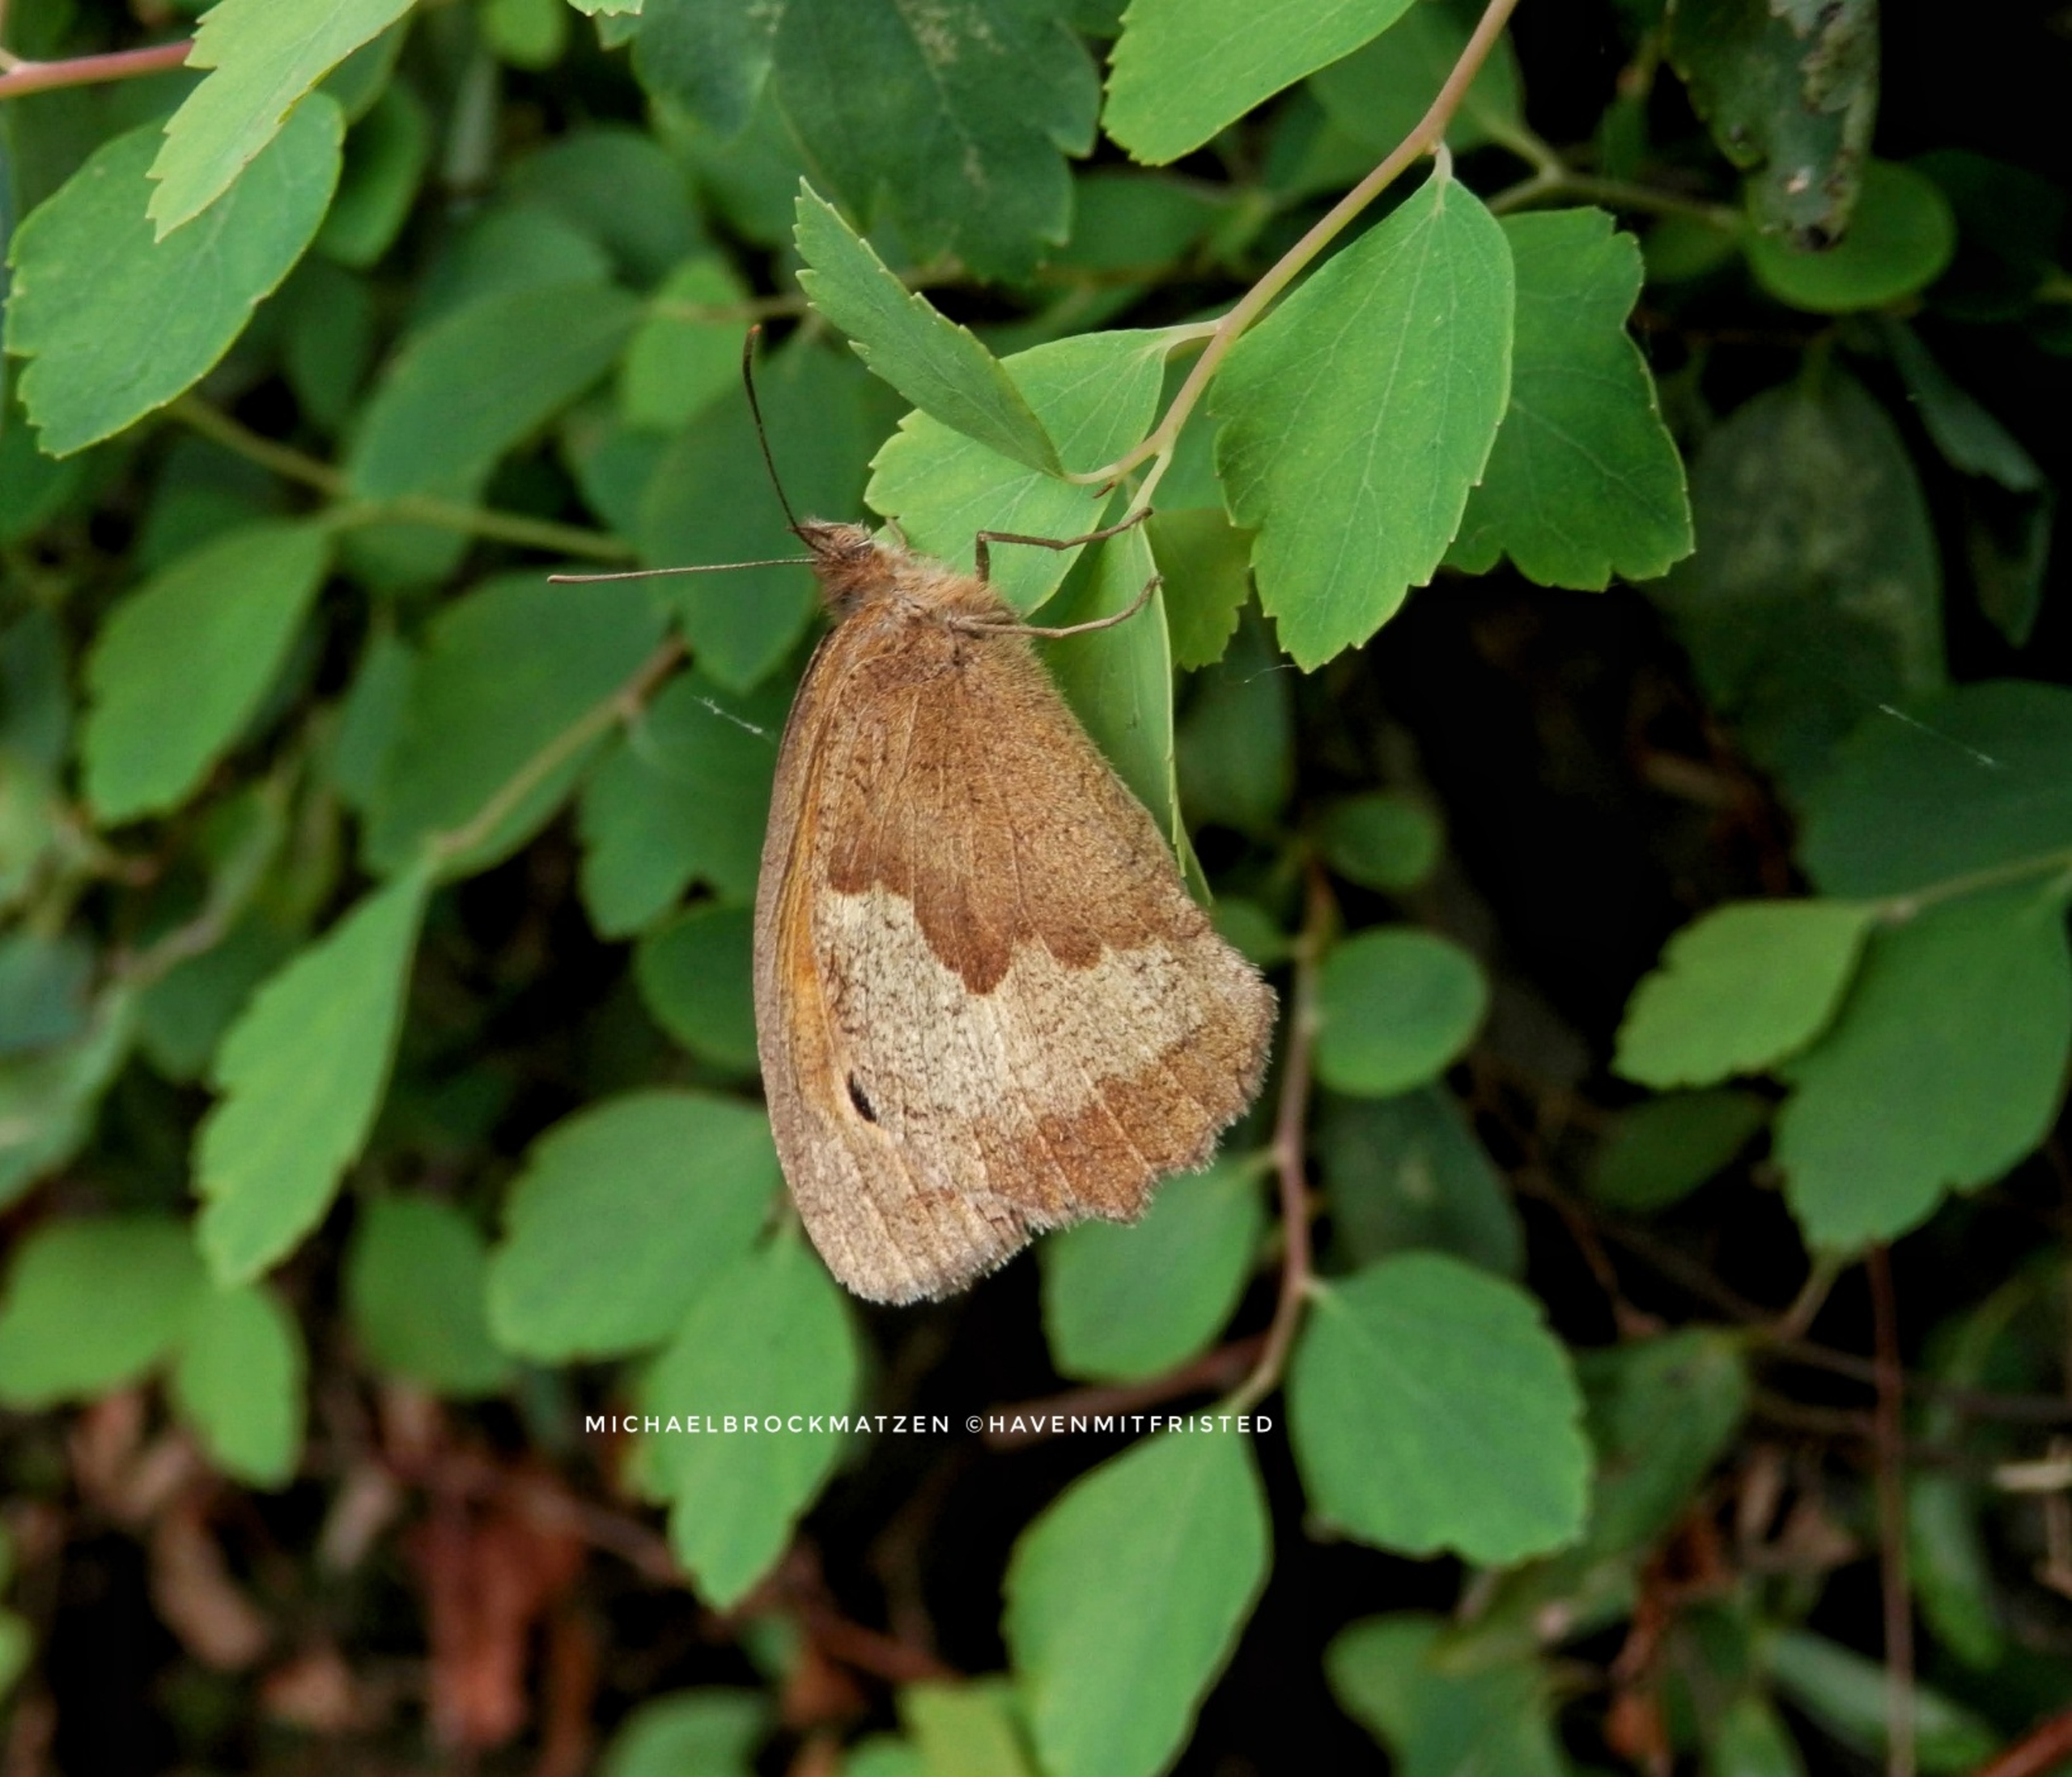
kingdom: Animalia
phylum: Arthropoda
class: Insecta
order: Lepidoptera
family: Nymphalidae
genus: Maniola
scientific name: Maniola jurtina
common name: Græsrandøje
